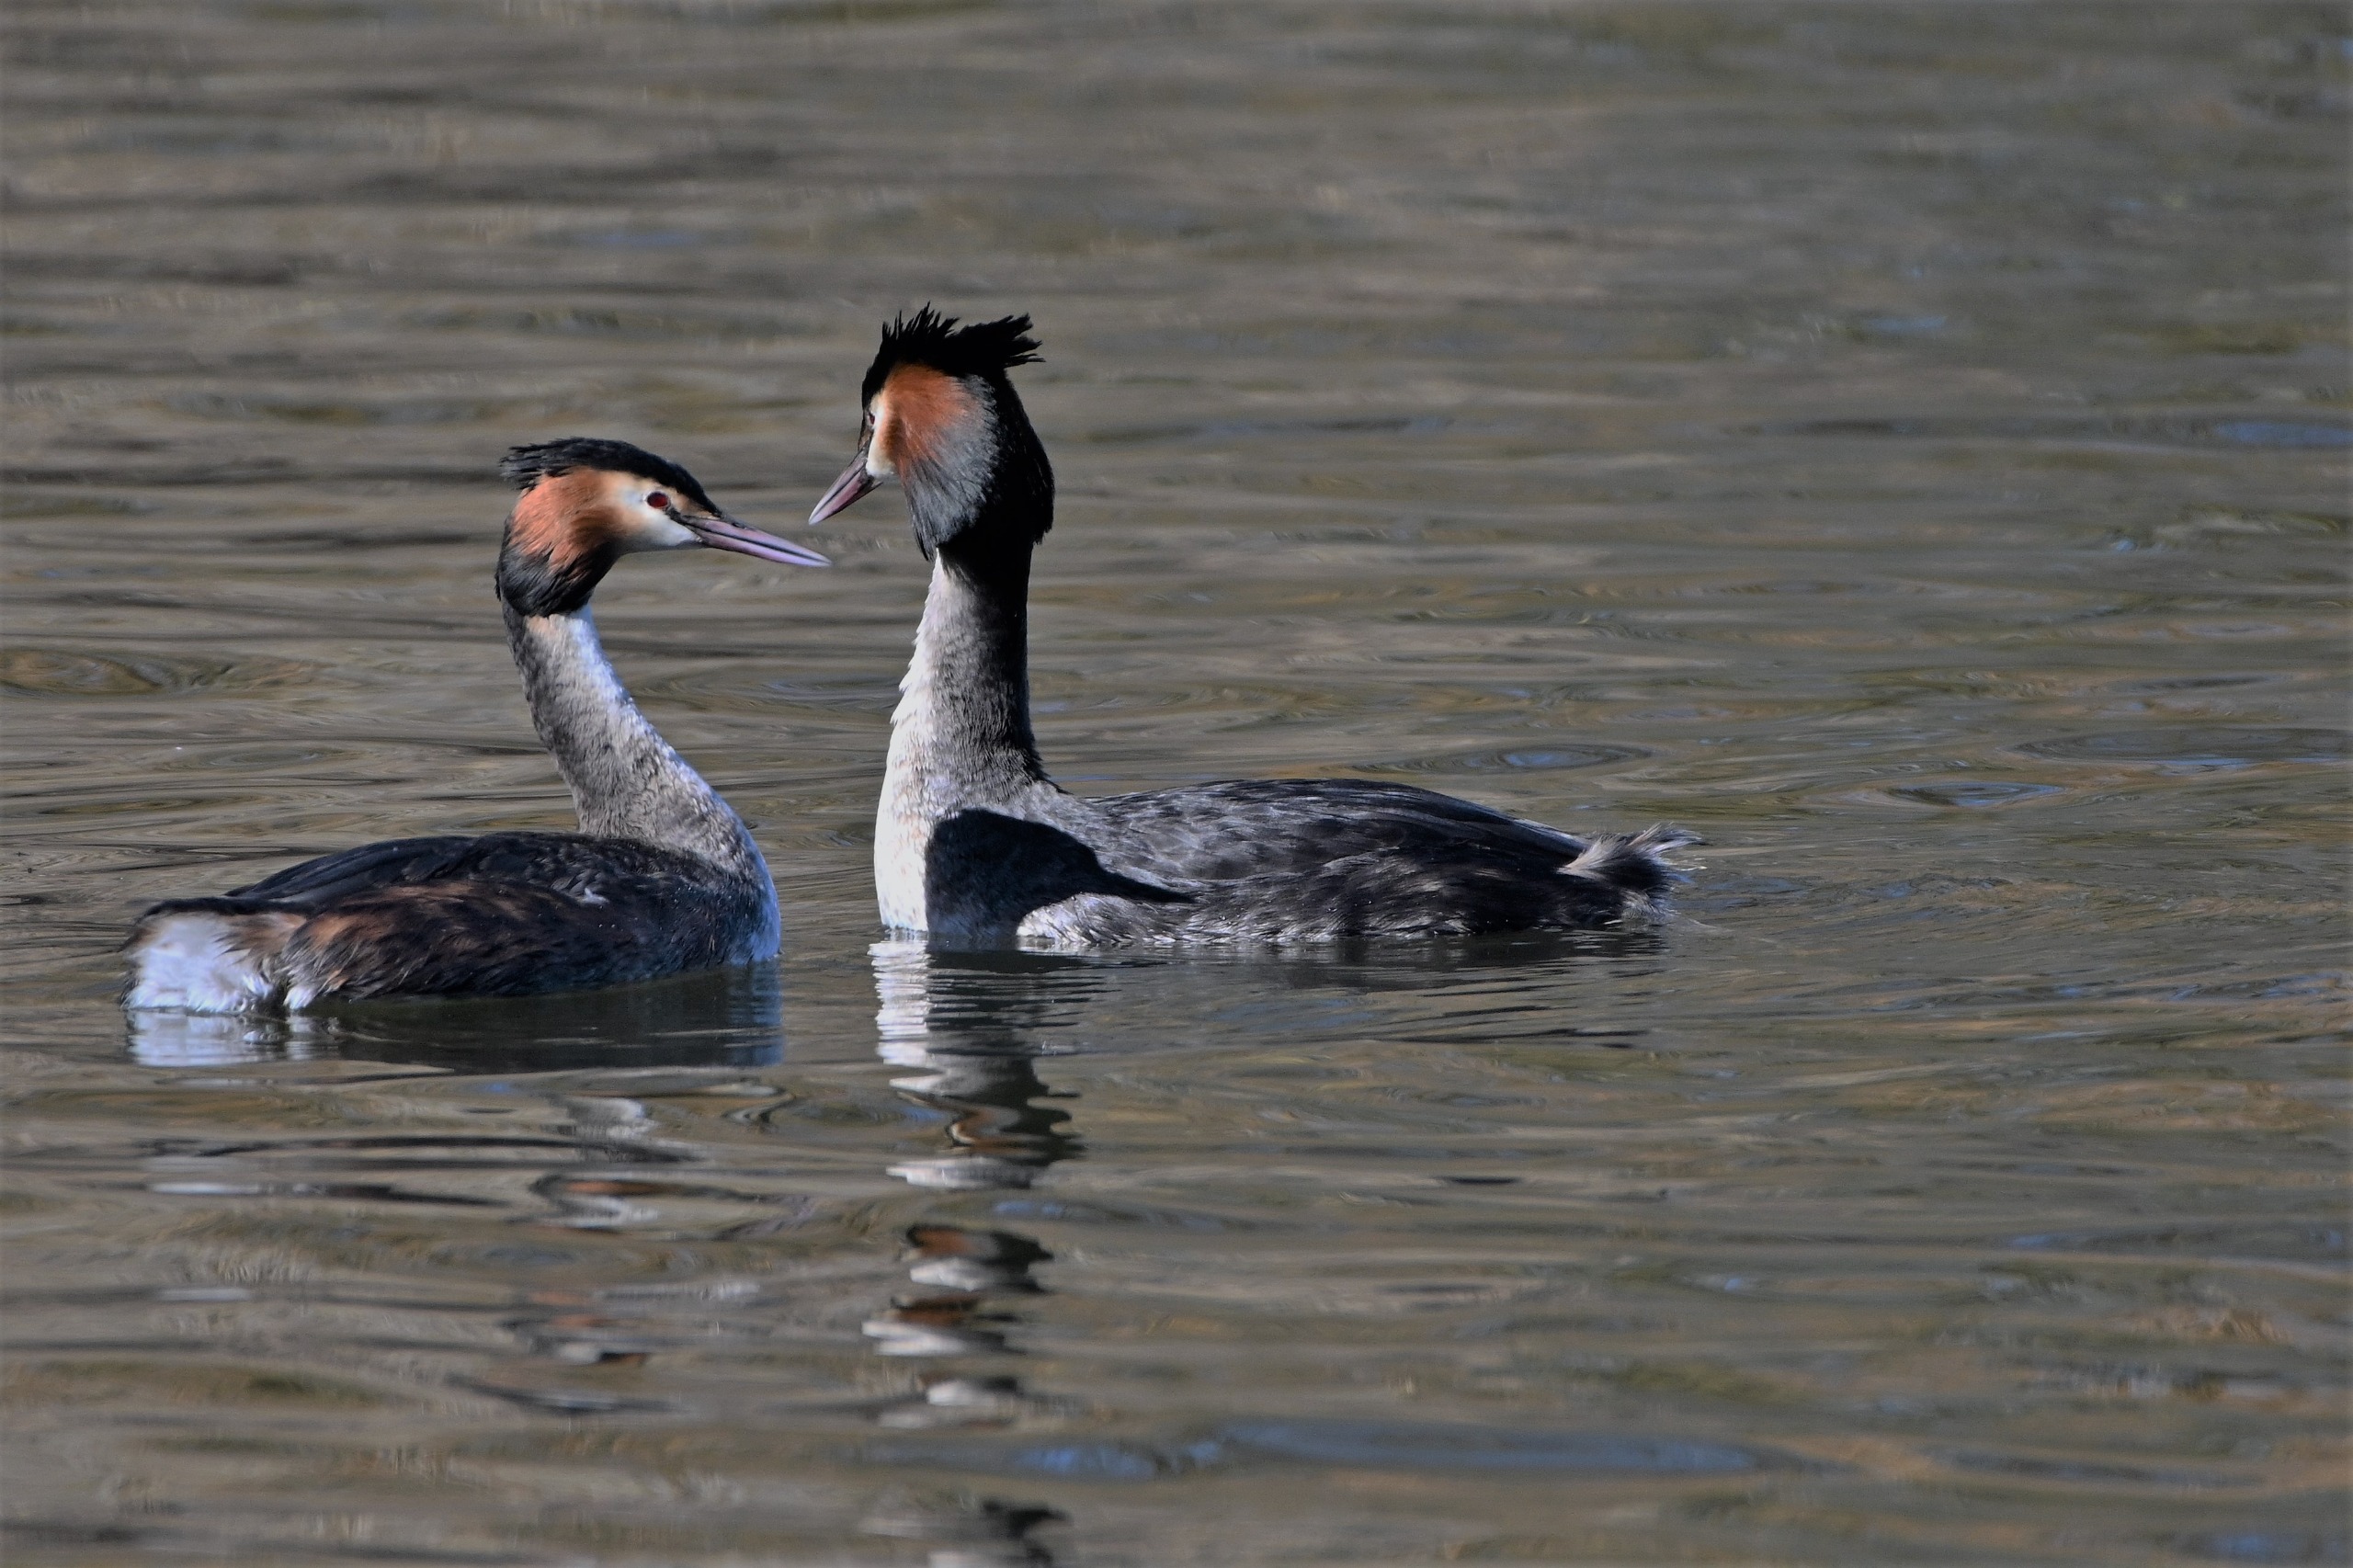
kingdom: Animalia
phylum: Chordata
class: Aves
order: Podicipediformes
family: Podicipedidae
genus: Podiceps
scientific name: Podiceps cristatus
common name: Toppet lappedykker
